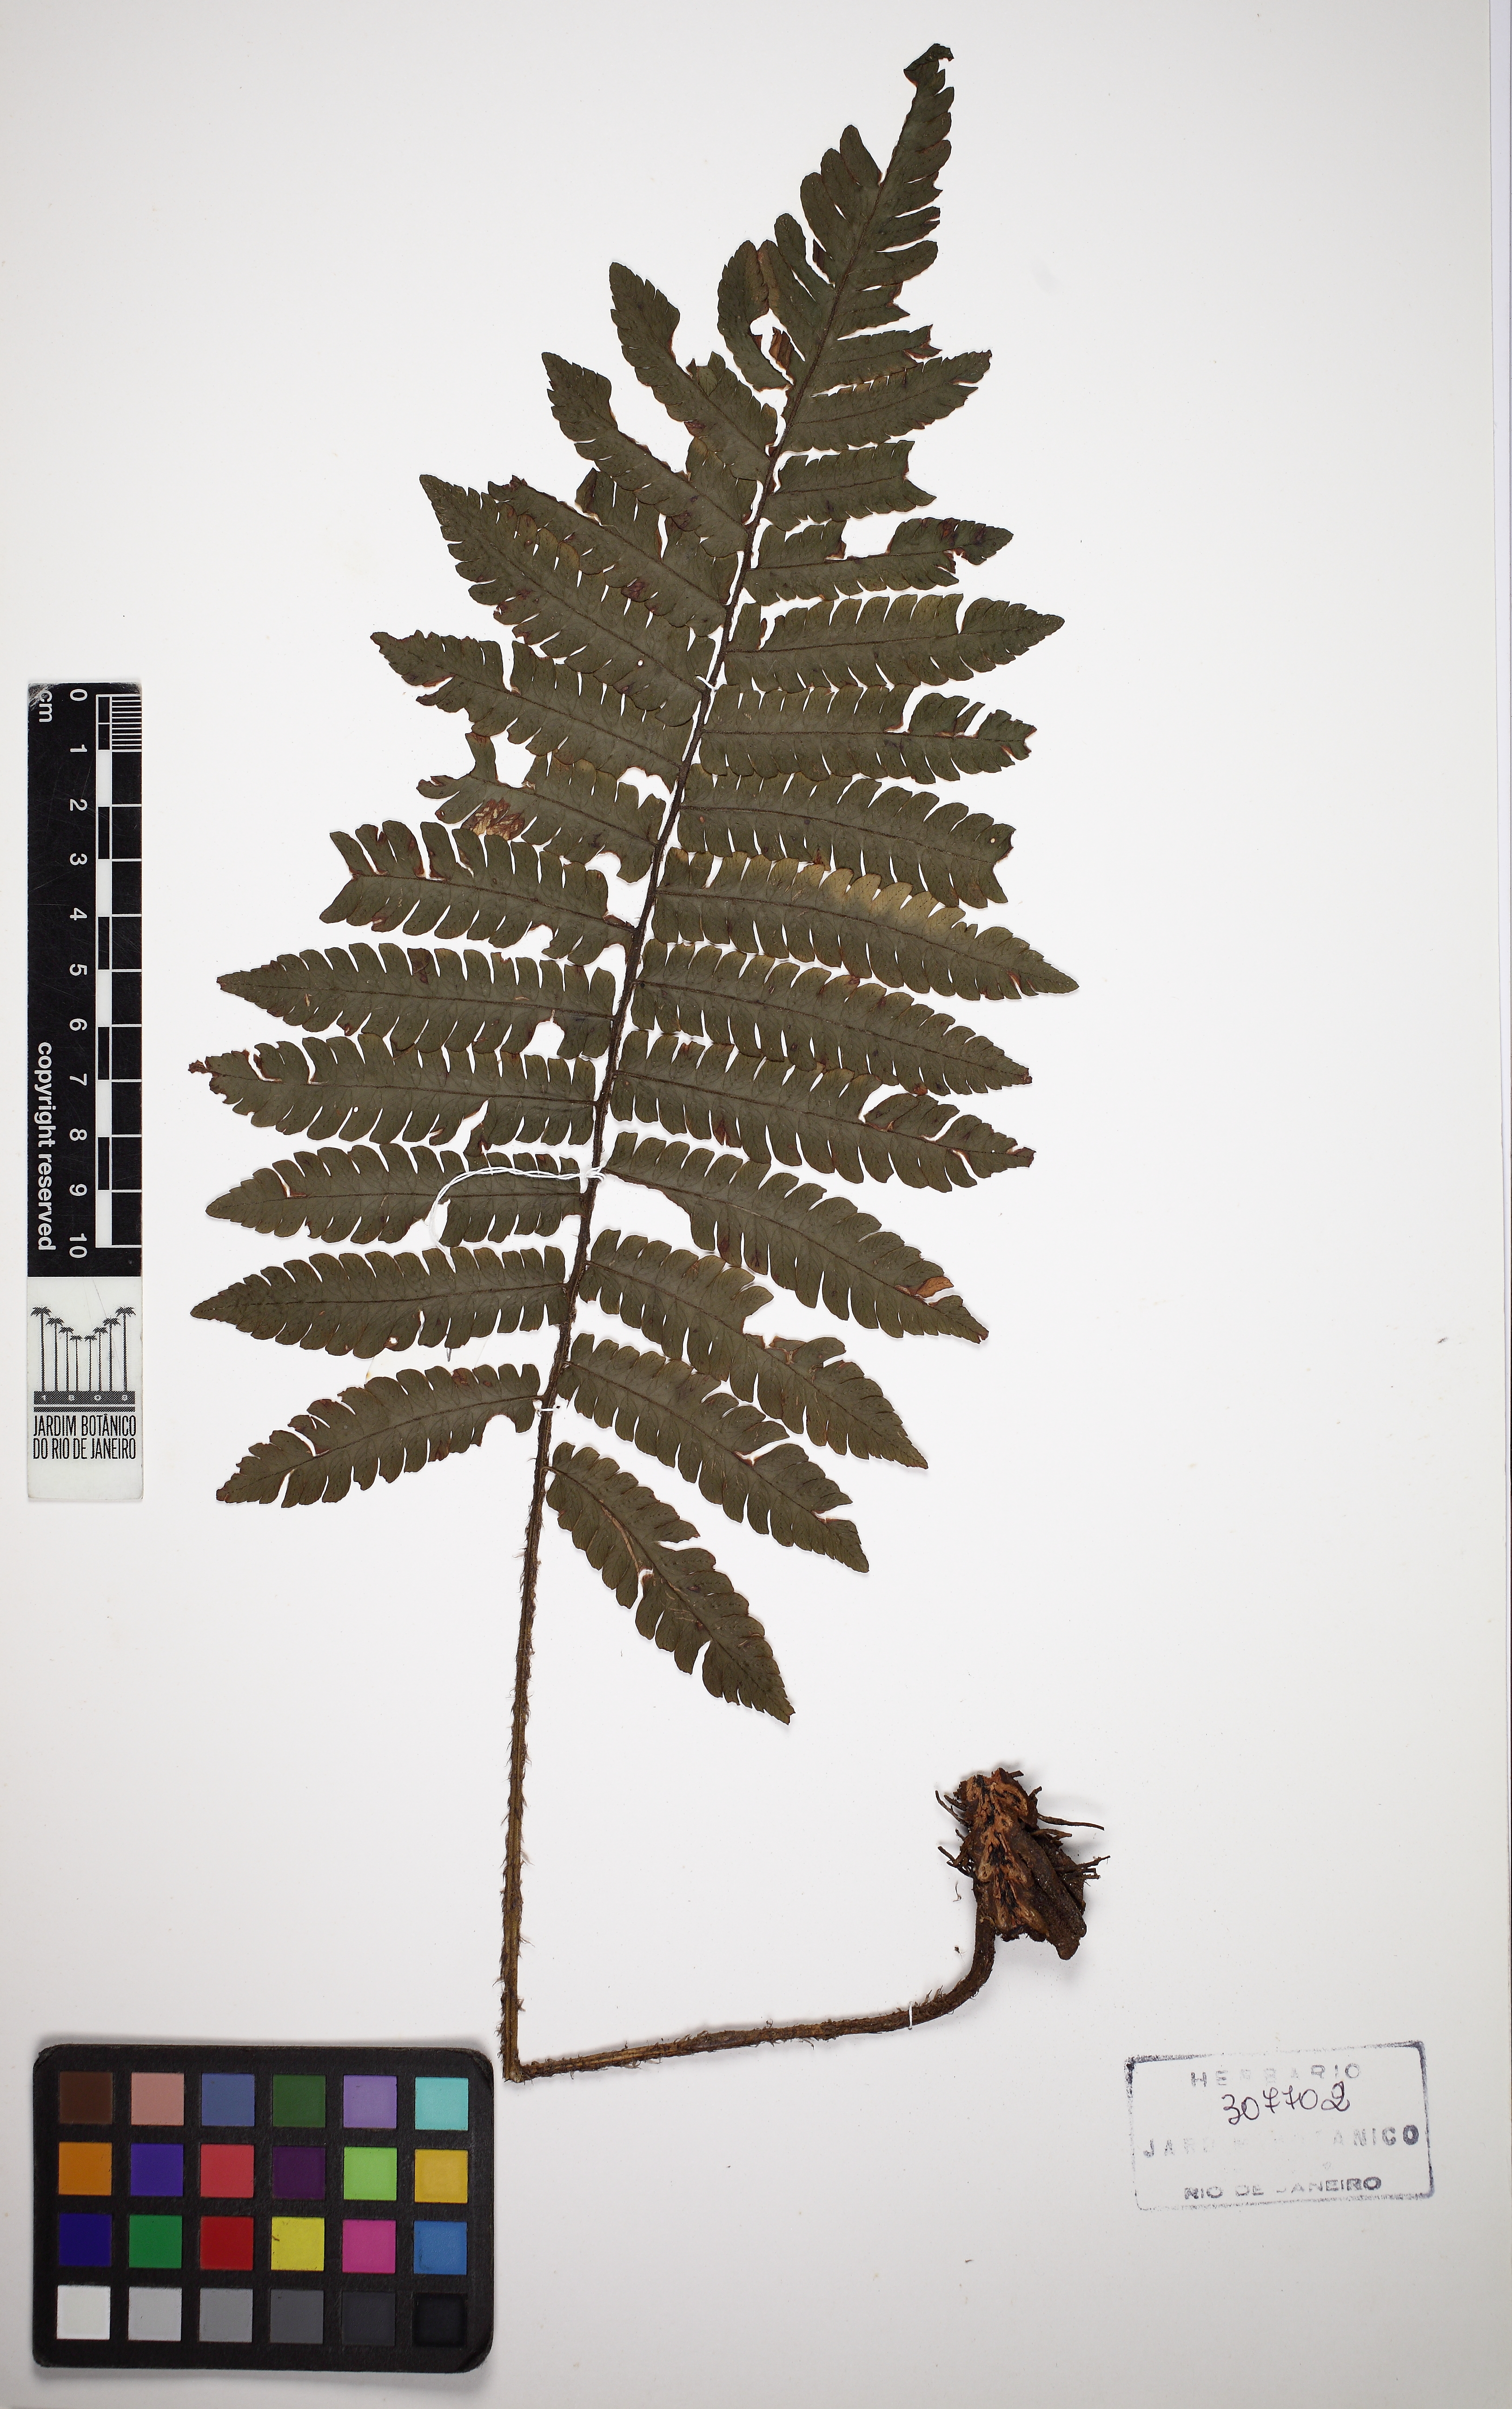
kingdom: Plantae
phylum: Tracheophyta
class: Polypodiopsida
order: Polypodiales
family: Dryopteridaceae
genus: Ctenitis
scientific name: Ctenitis deflexa
